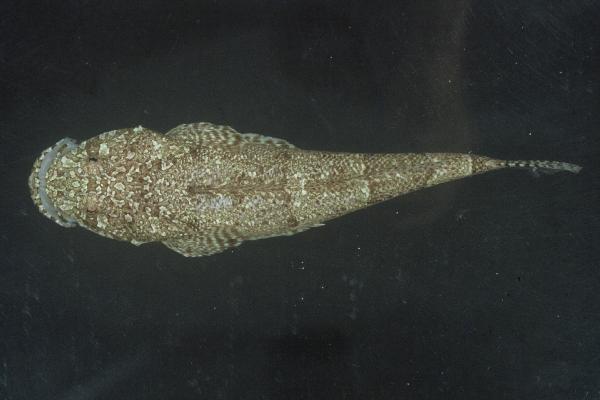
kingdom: Animalia
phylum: Chordata
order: Scorpaeniformes
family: Platycephalidae
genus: Sunagocia
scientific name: Sunagocia arenicola
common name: Broadhead flathead
